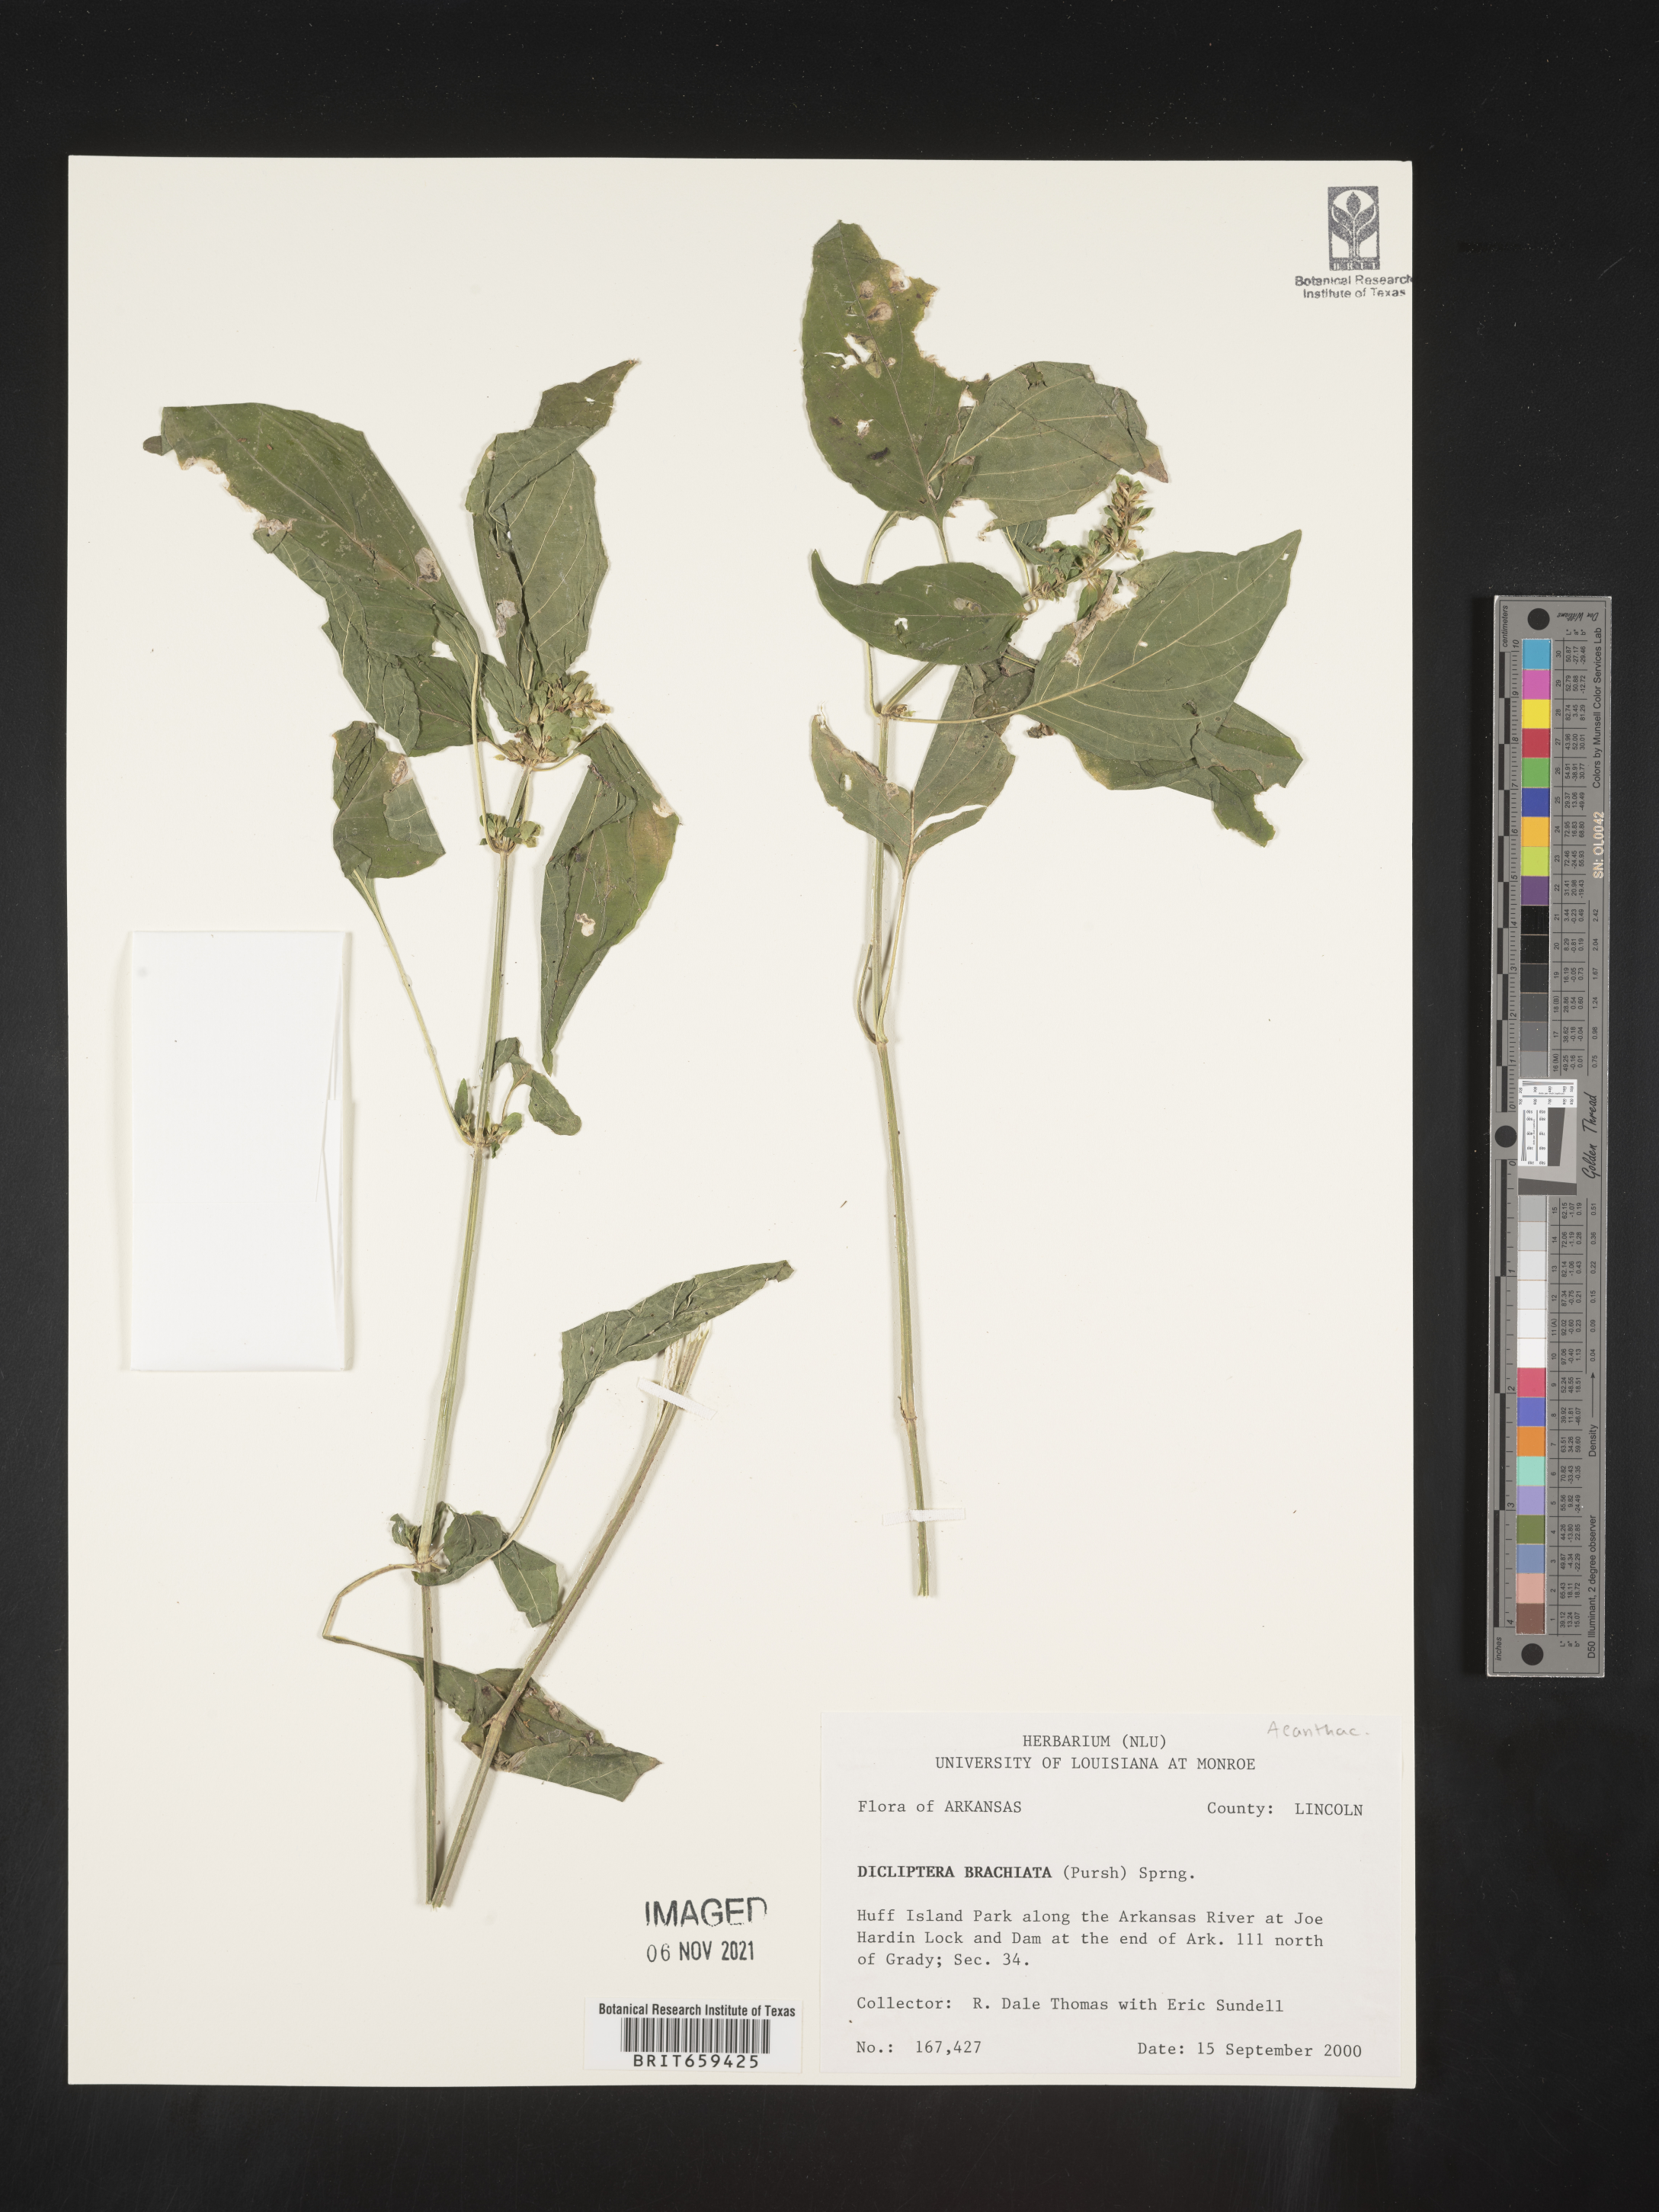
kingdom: Plantae
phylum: Tracheophyta
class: Magnoliopsida
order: Lamiales
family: Acanthaceae
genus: Dicliptera
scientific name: Dicliptera brachiata
